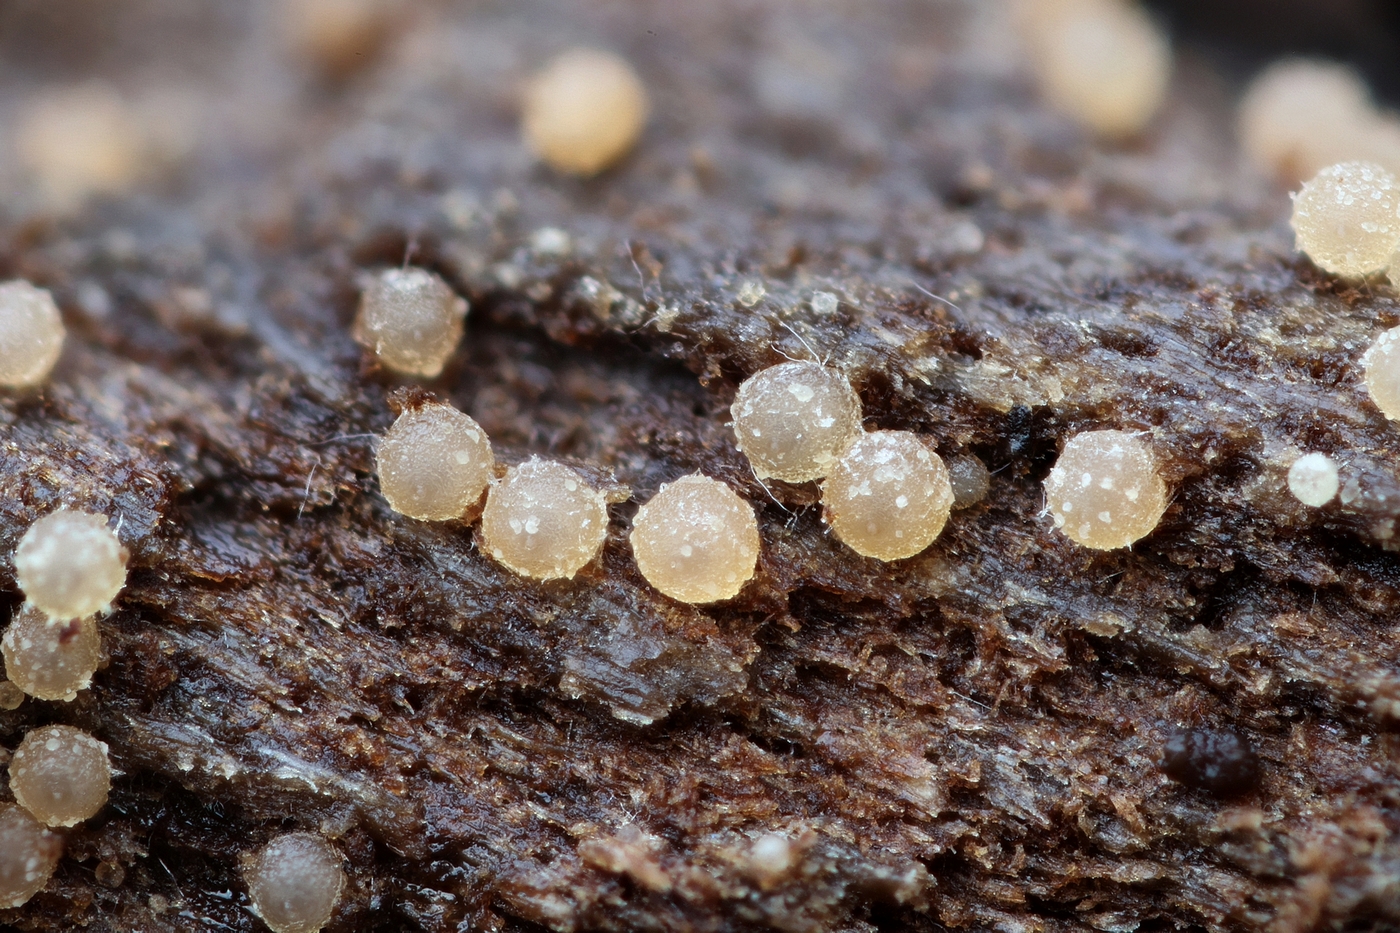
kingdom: Fungi
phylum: Ascomycota
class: Sordariomycetes
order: Hypocreales
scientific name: Hypocreales
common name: kødkerneordenen
